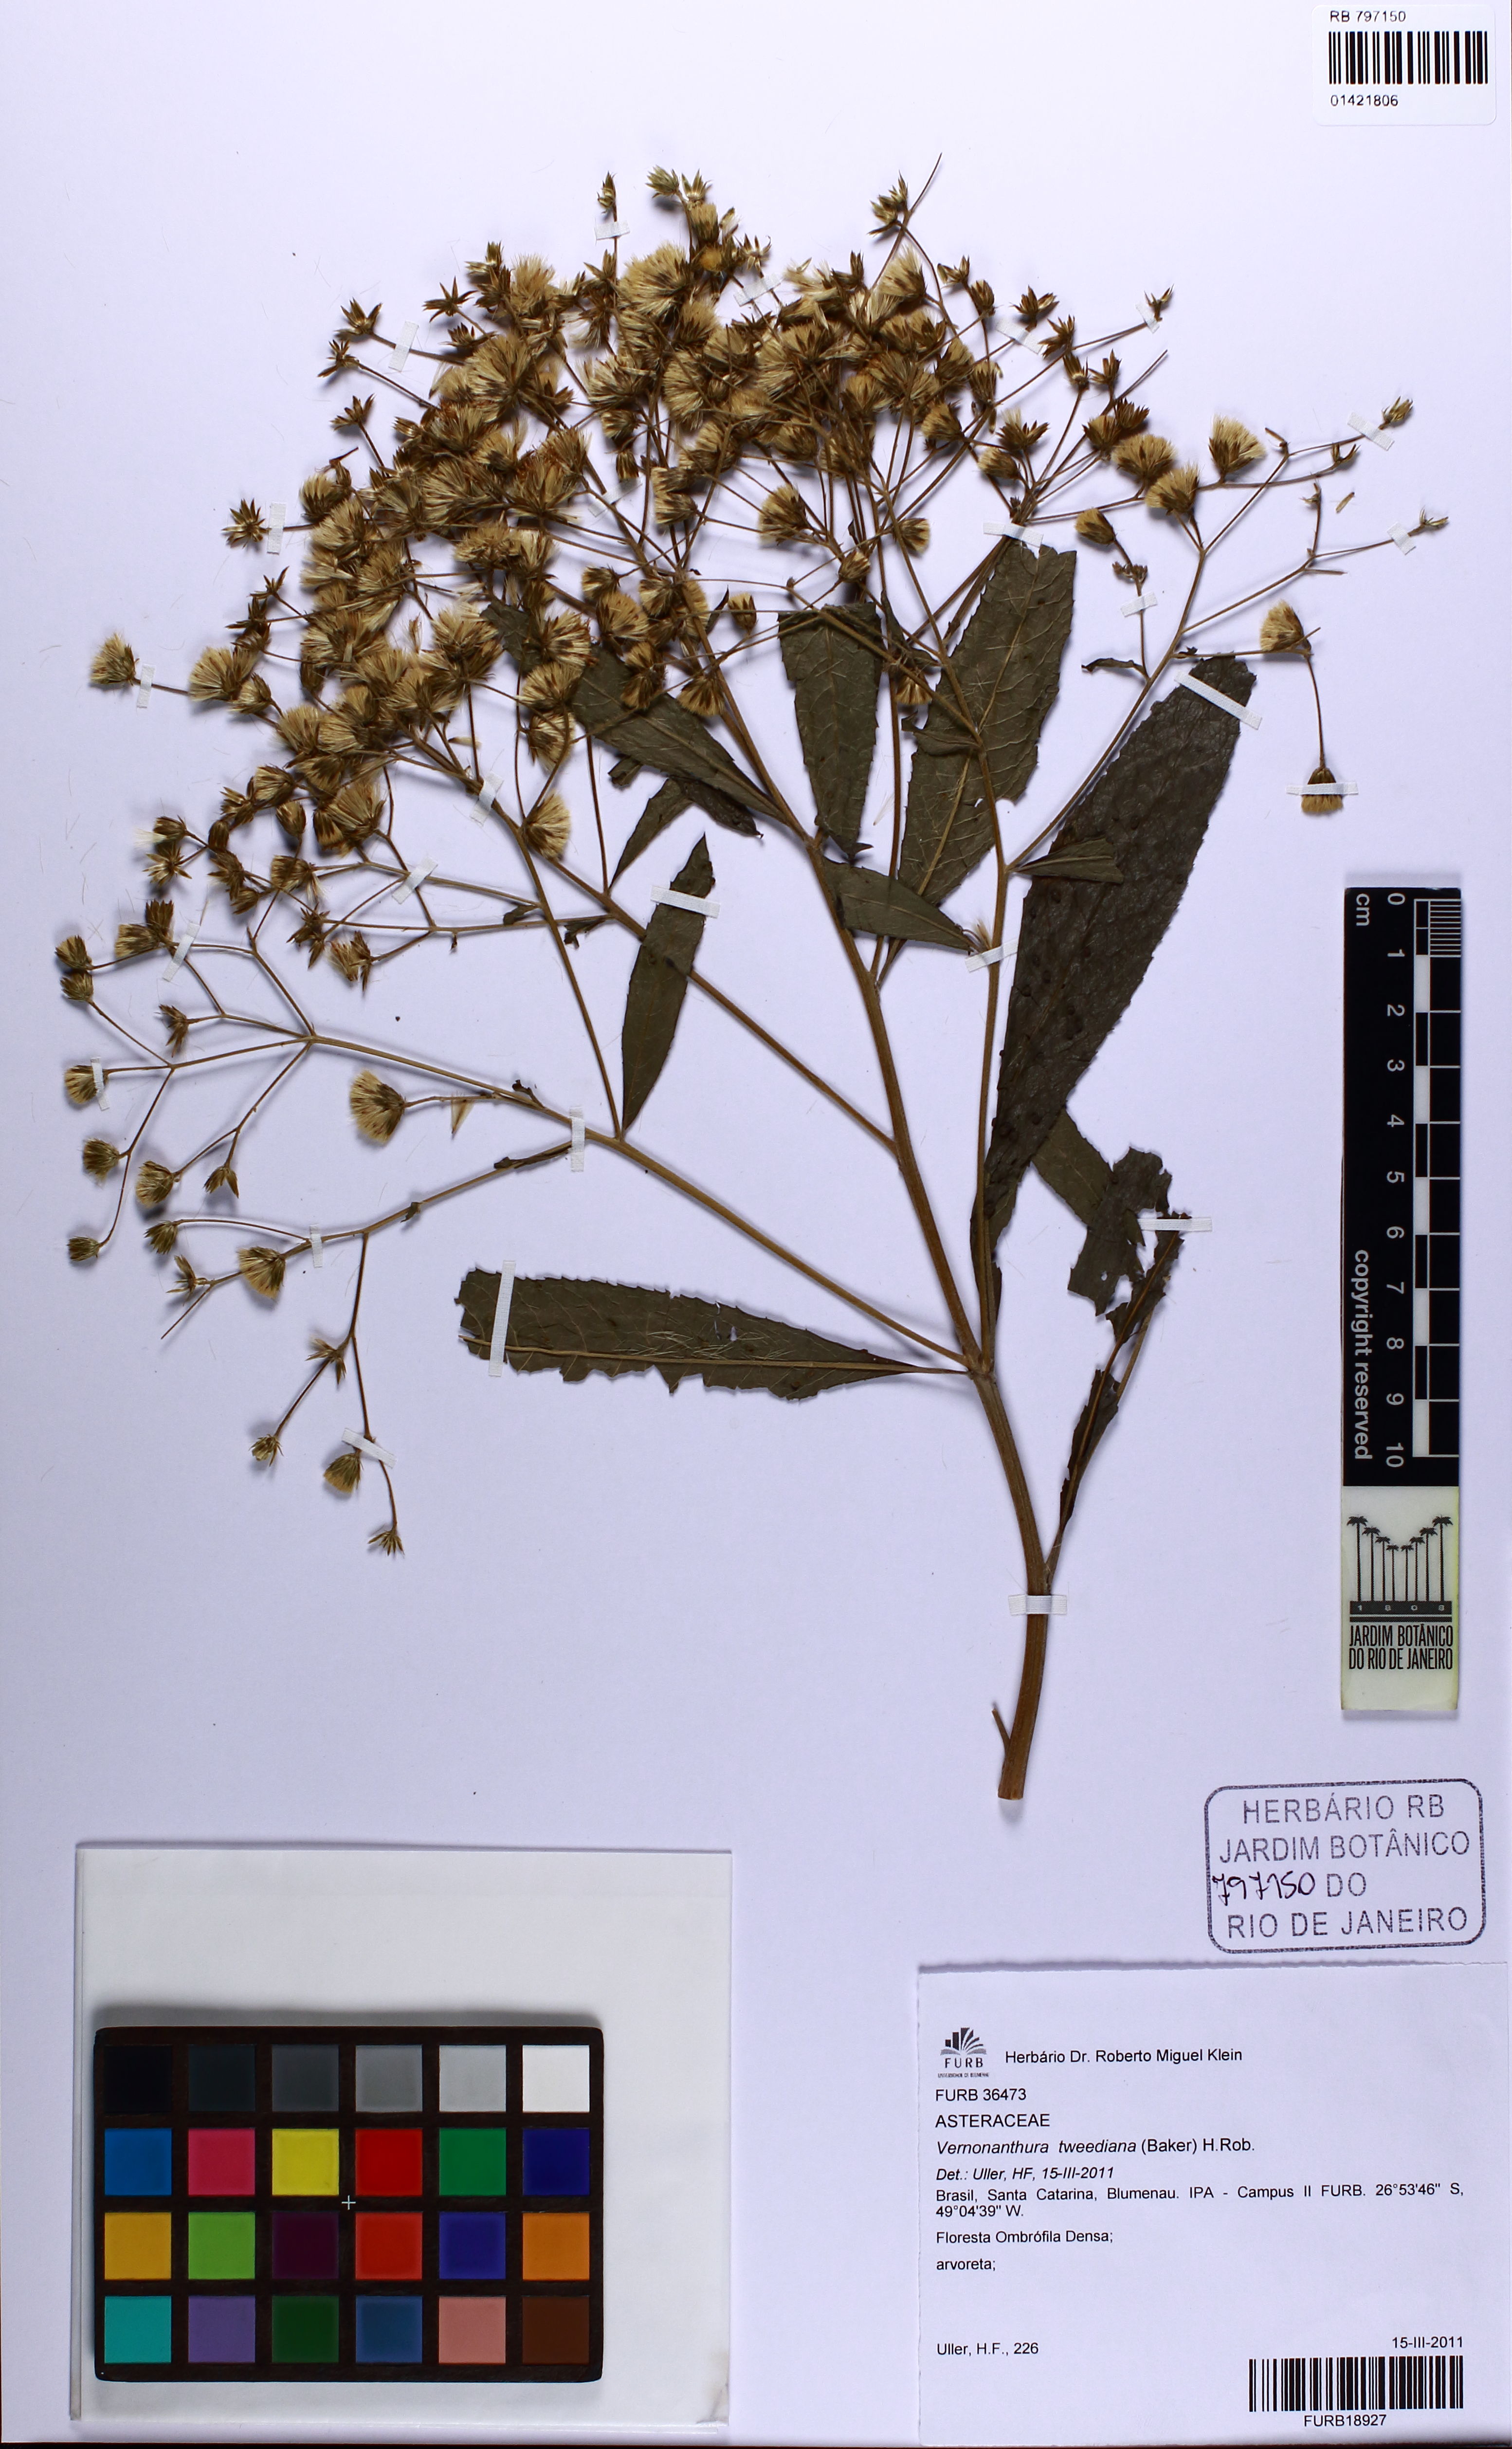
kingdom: Plantae
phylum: Tracheophyta
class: Magnoliopsida
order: Asterales
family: Asteraceae
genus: Vernonanthura
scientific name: Vernonanthura tweediana
